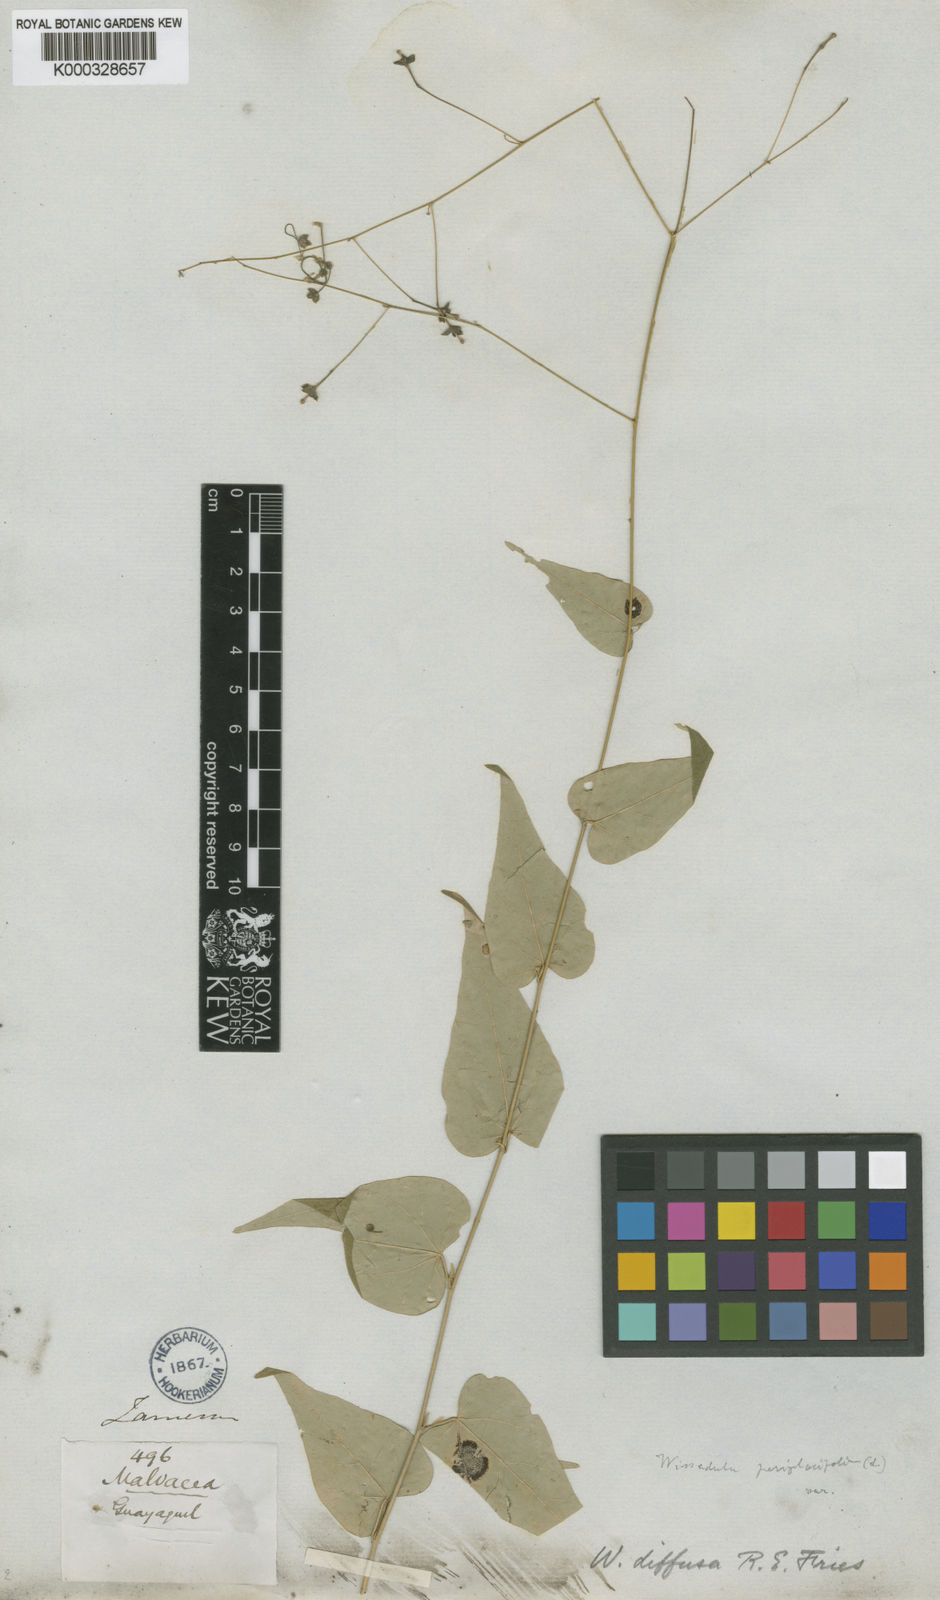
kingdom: Plantae
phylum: Tracheophyta
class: Magnoliopsida
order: Malvales
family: Malvaceae
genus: Wissadula
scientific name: Wissadula excelsior
